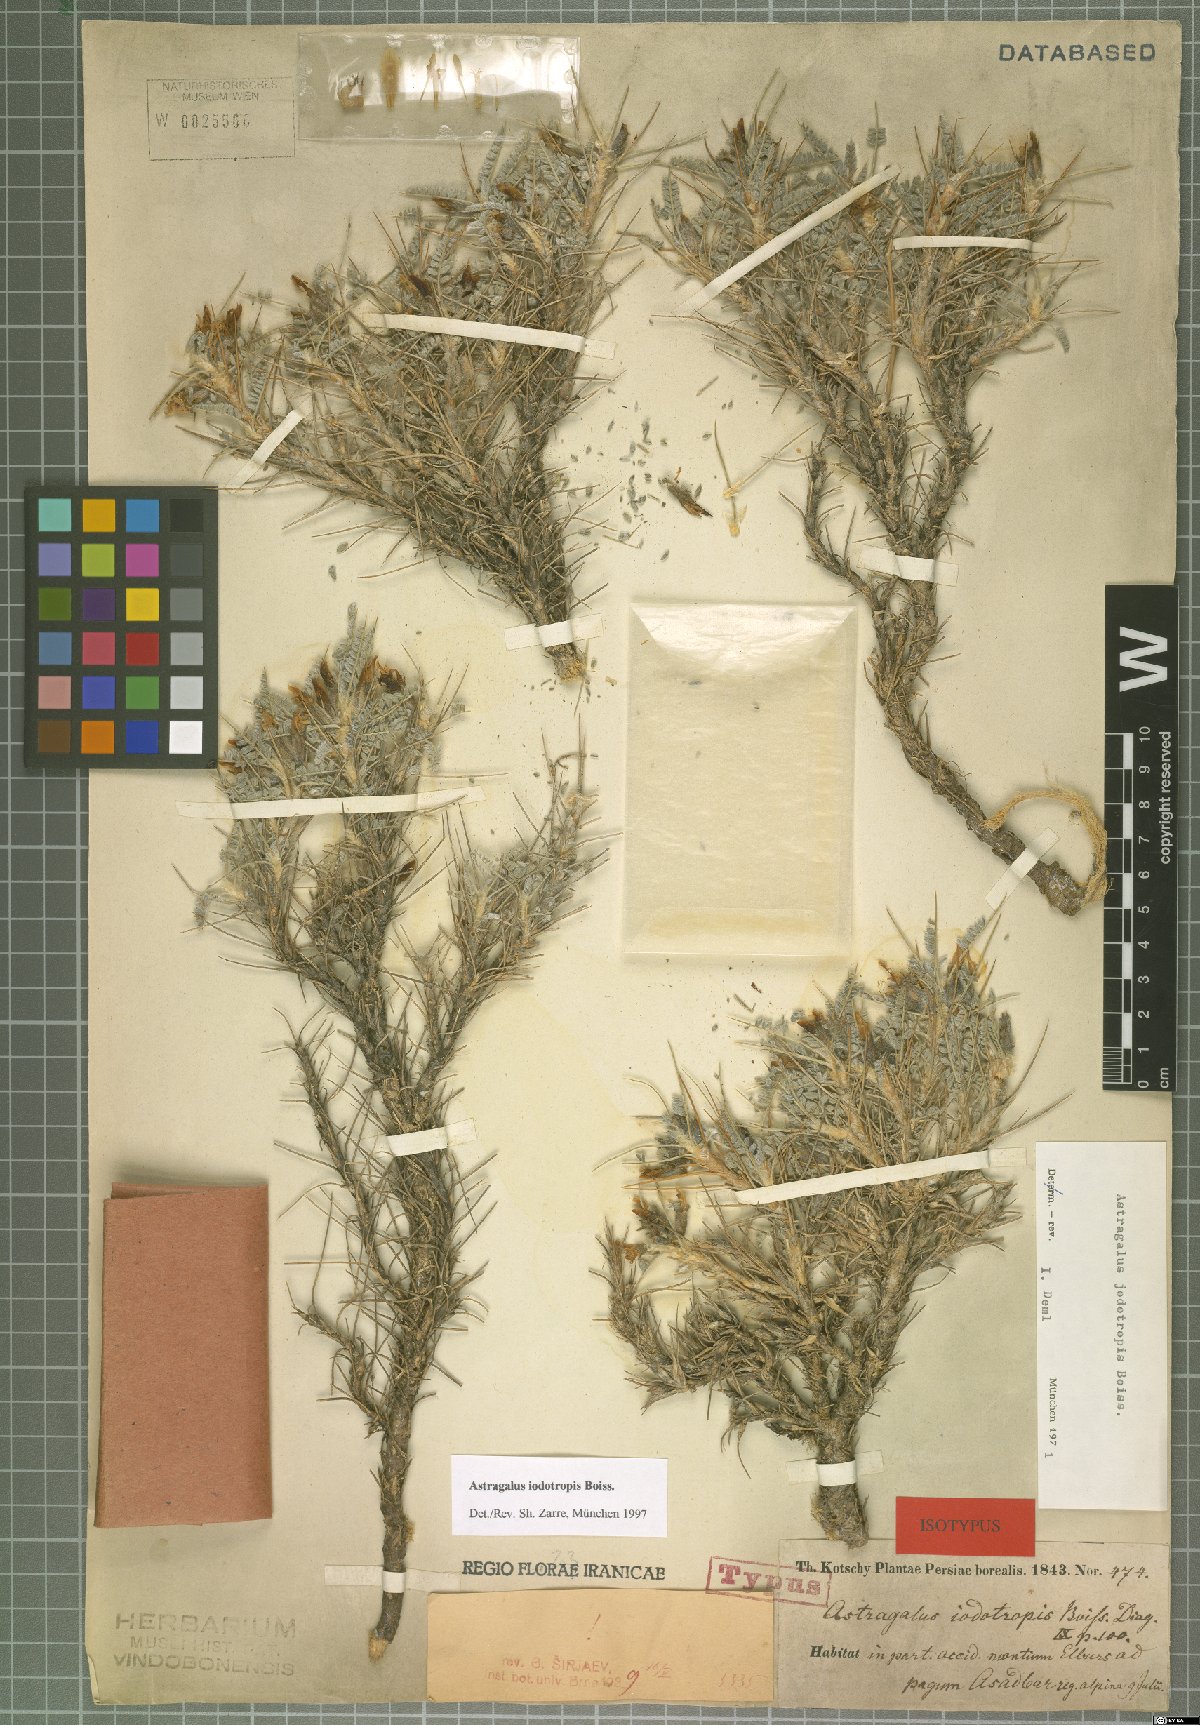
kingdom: Plantae
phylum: Tracheophyta
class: Magnoliopsida
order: Fabales
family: Fabaceae
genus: Astragalus
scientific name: Astragalus iodotropis
